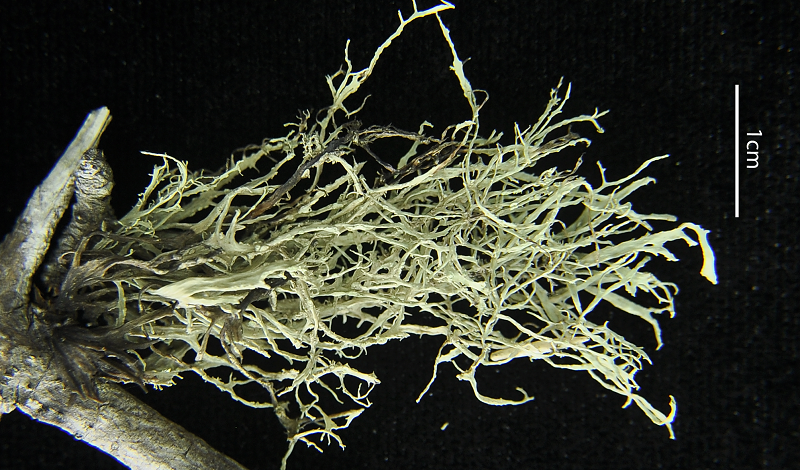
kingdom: Fungi
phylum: Ascomycota
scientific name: Ascomycota
